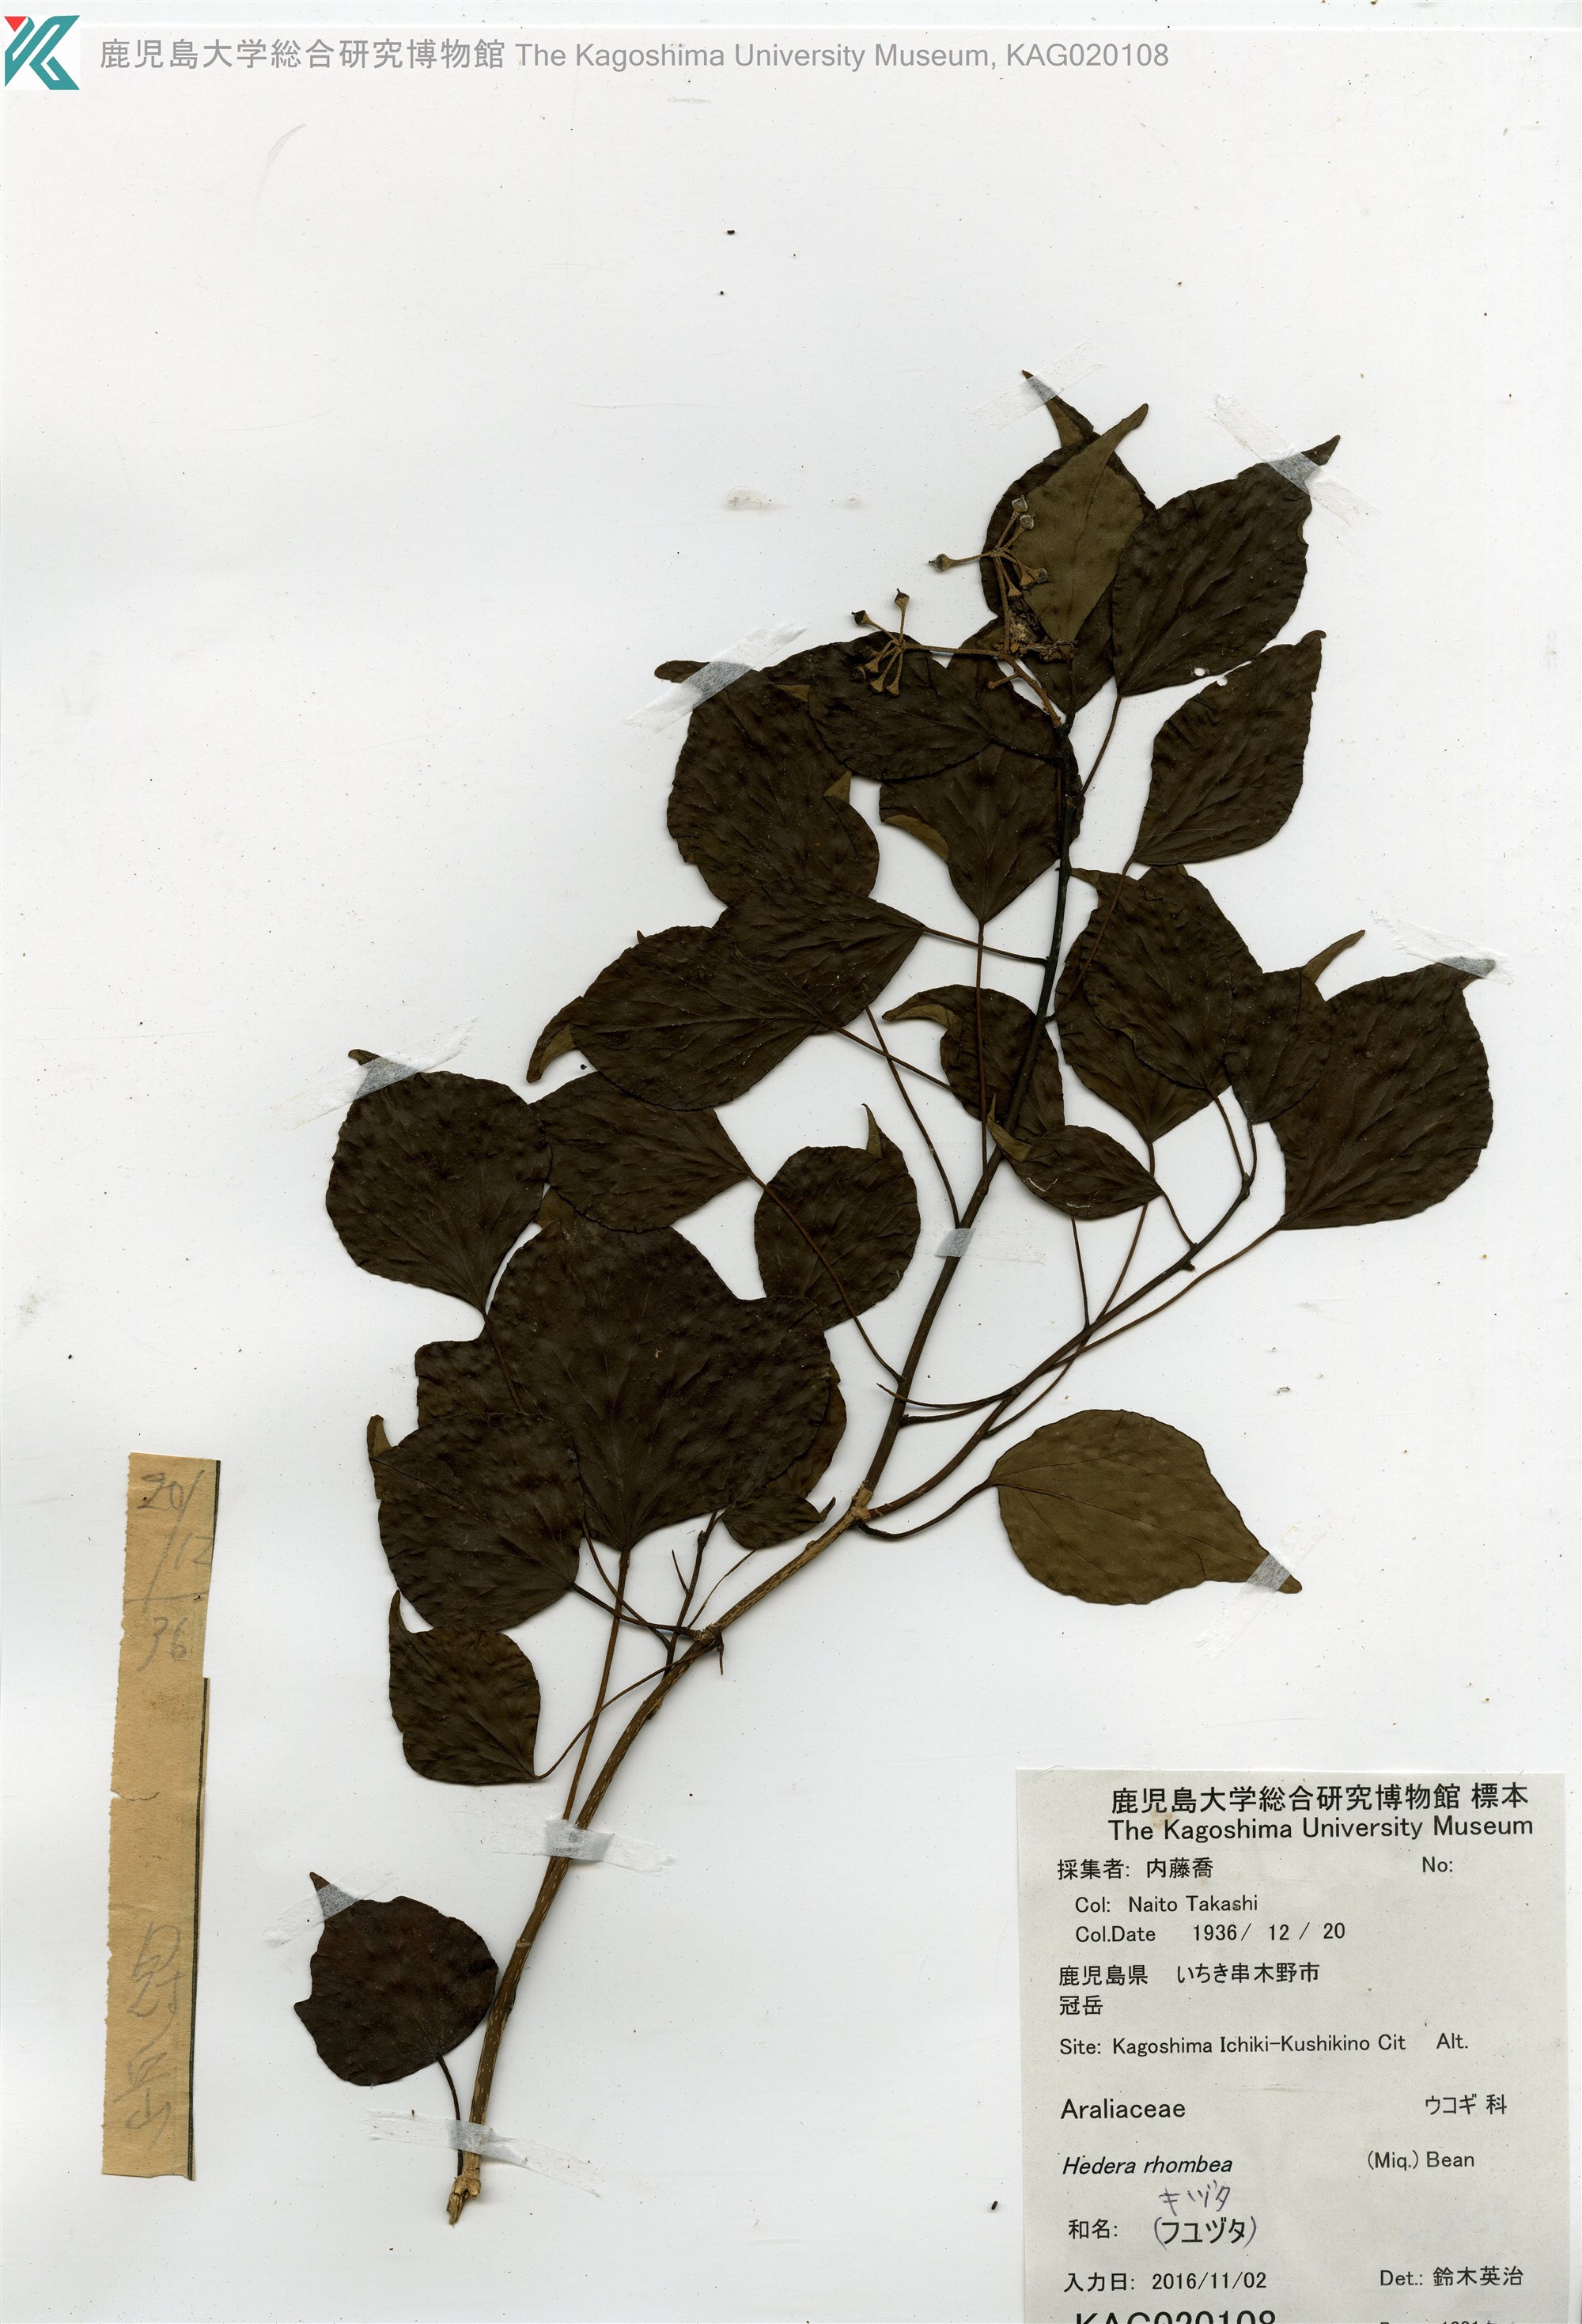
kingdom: Plantae
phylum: Tracheophyta
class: Magnoliopsida
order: Apiales
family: Araliaceae
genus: Hedera
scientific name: Hedera rhombea
